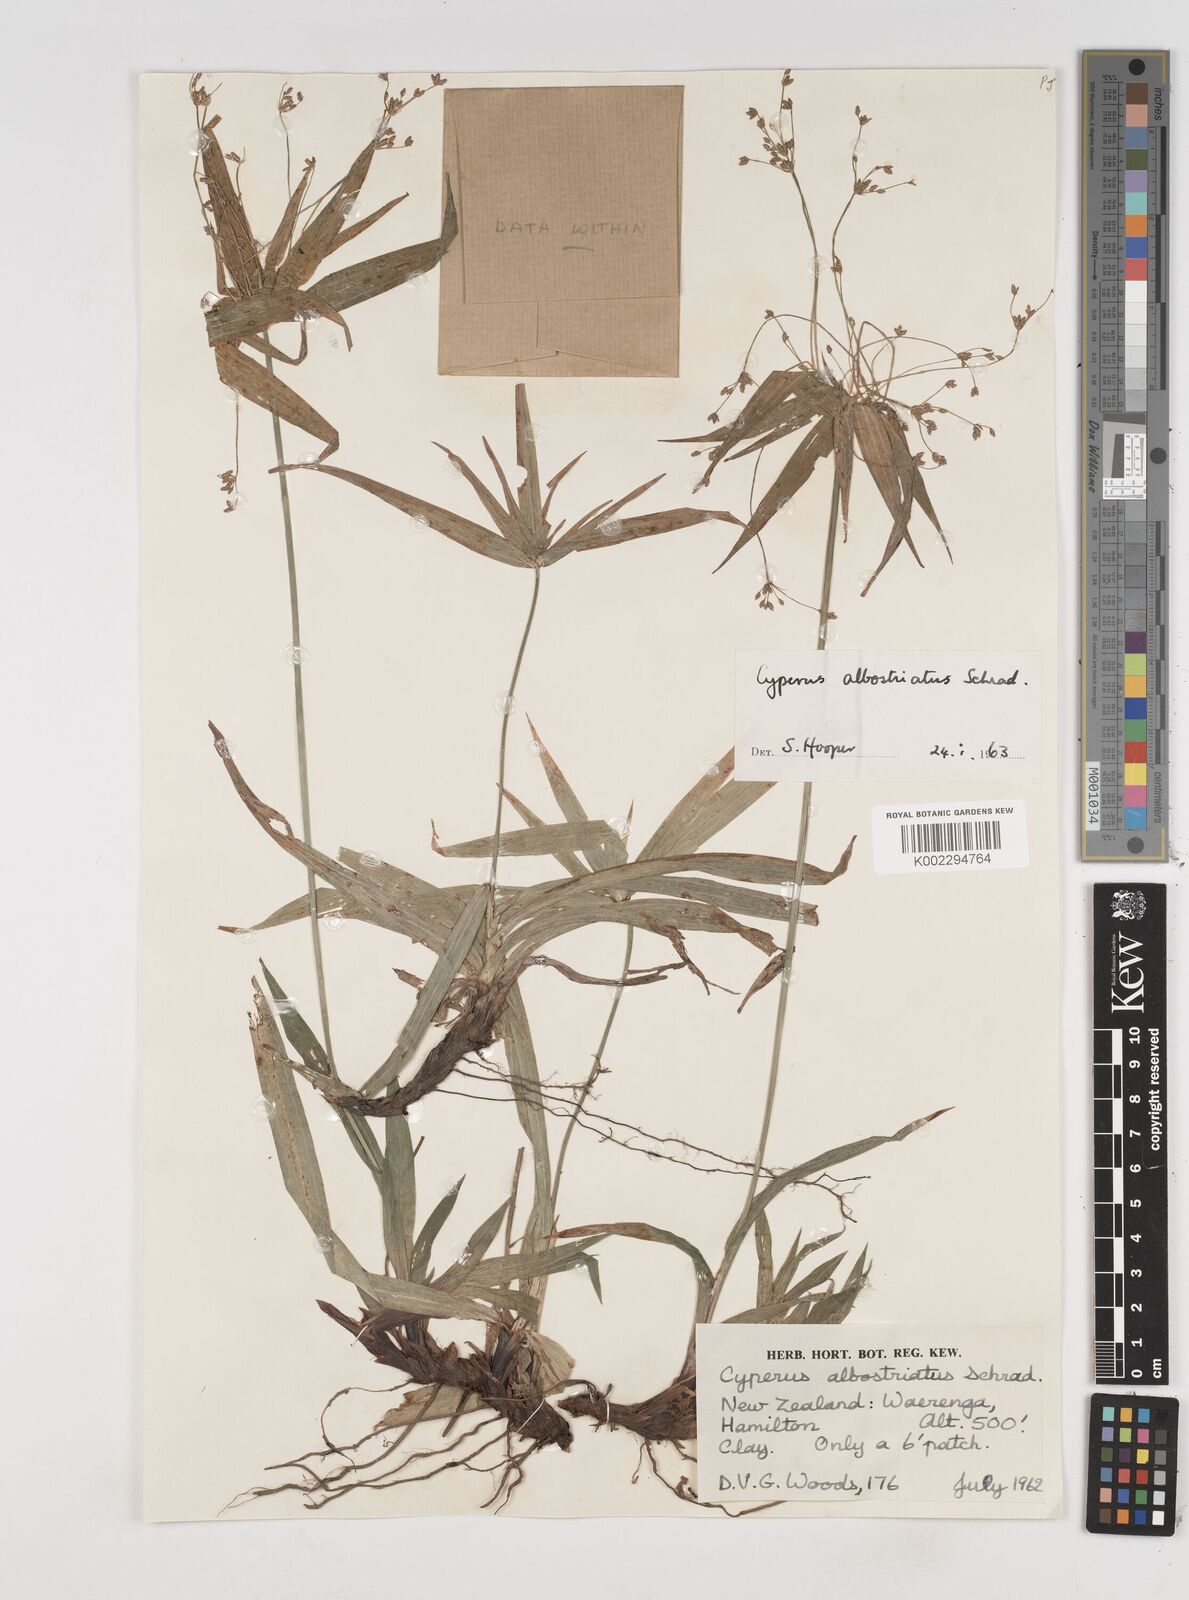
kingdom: Plantae
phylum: Tracheophyta
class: Liliopsida
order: Poales
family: Cyperaceae
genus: Cyperus
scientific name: Cyperus albostriatus
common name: Dwarf umbrella-grass
